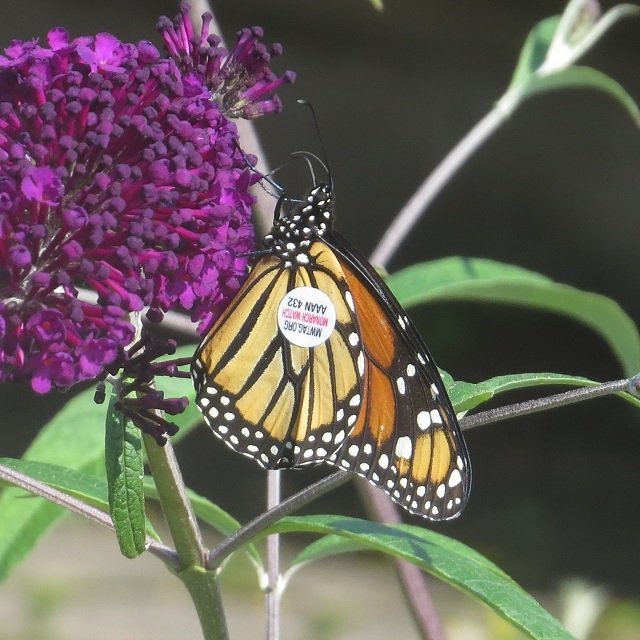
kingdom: Animalia
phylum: Arthropoda
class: Insecta
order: Lepidoptera
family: Nymphalidae
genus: Danaus
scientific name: Danaus plexippus
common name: Monarch
